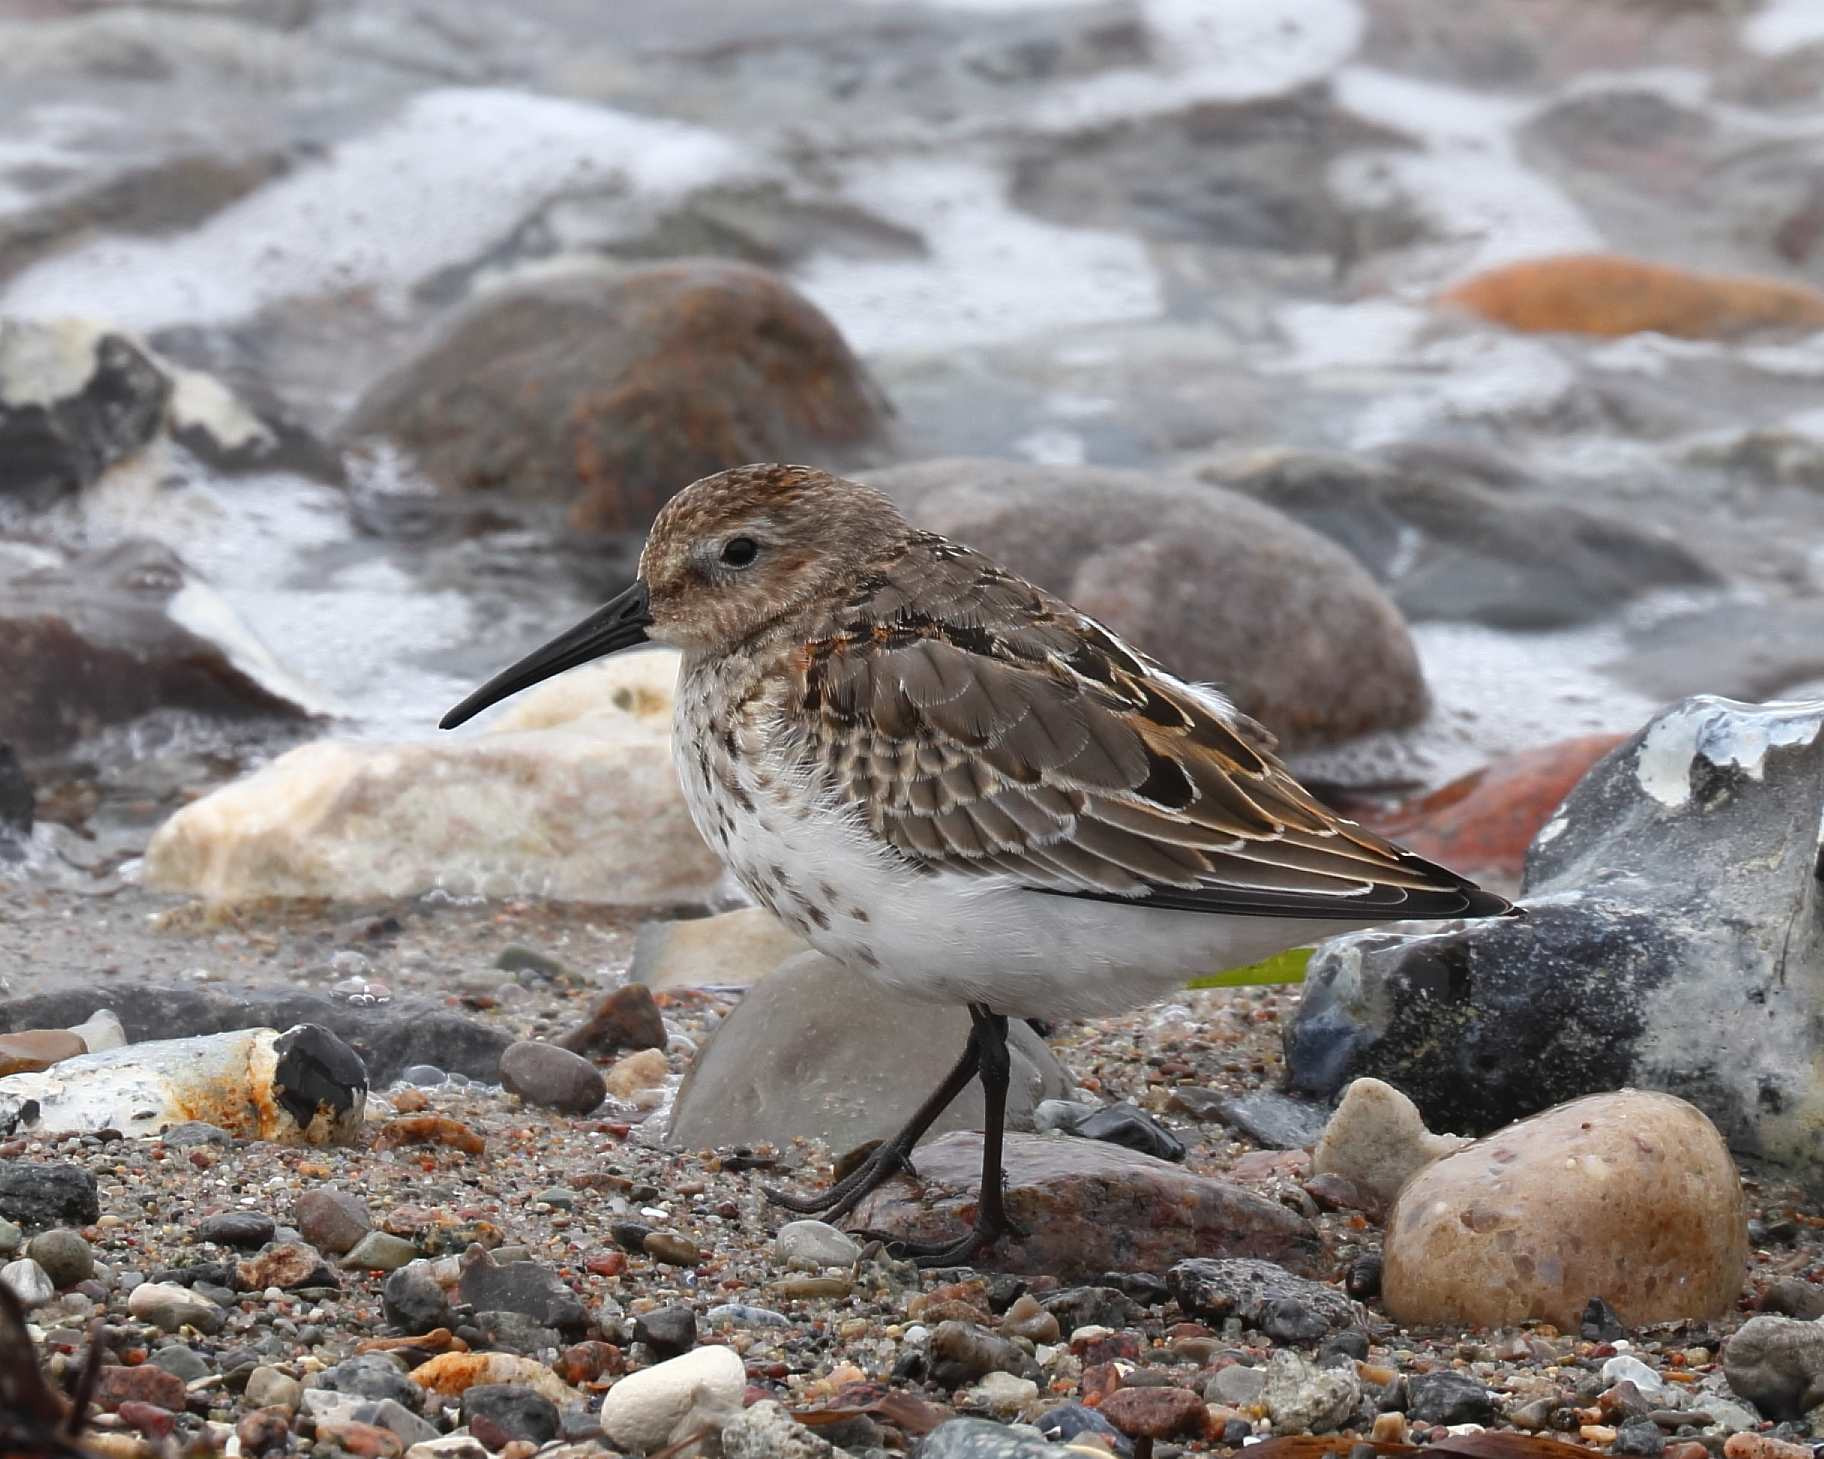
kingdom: Animalia
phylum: Chordata
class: Aves
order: Charadriiformes
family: Scolopacidae
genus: Calidris
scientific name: Calidris alpina
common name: Almindelig ryle
